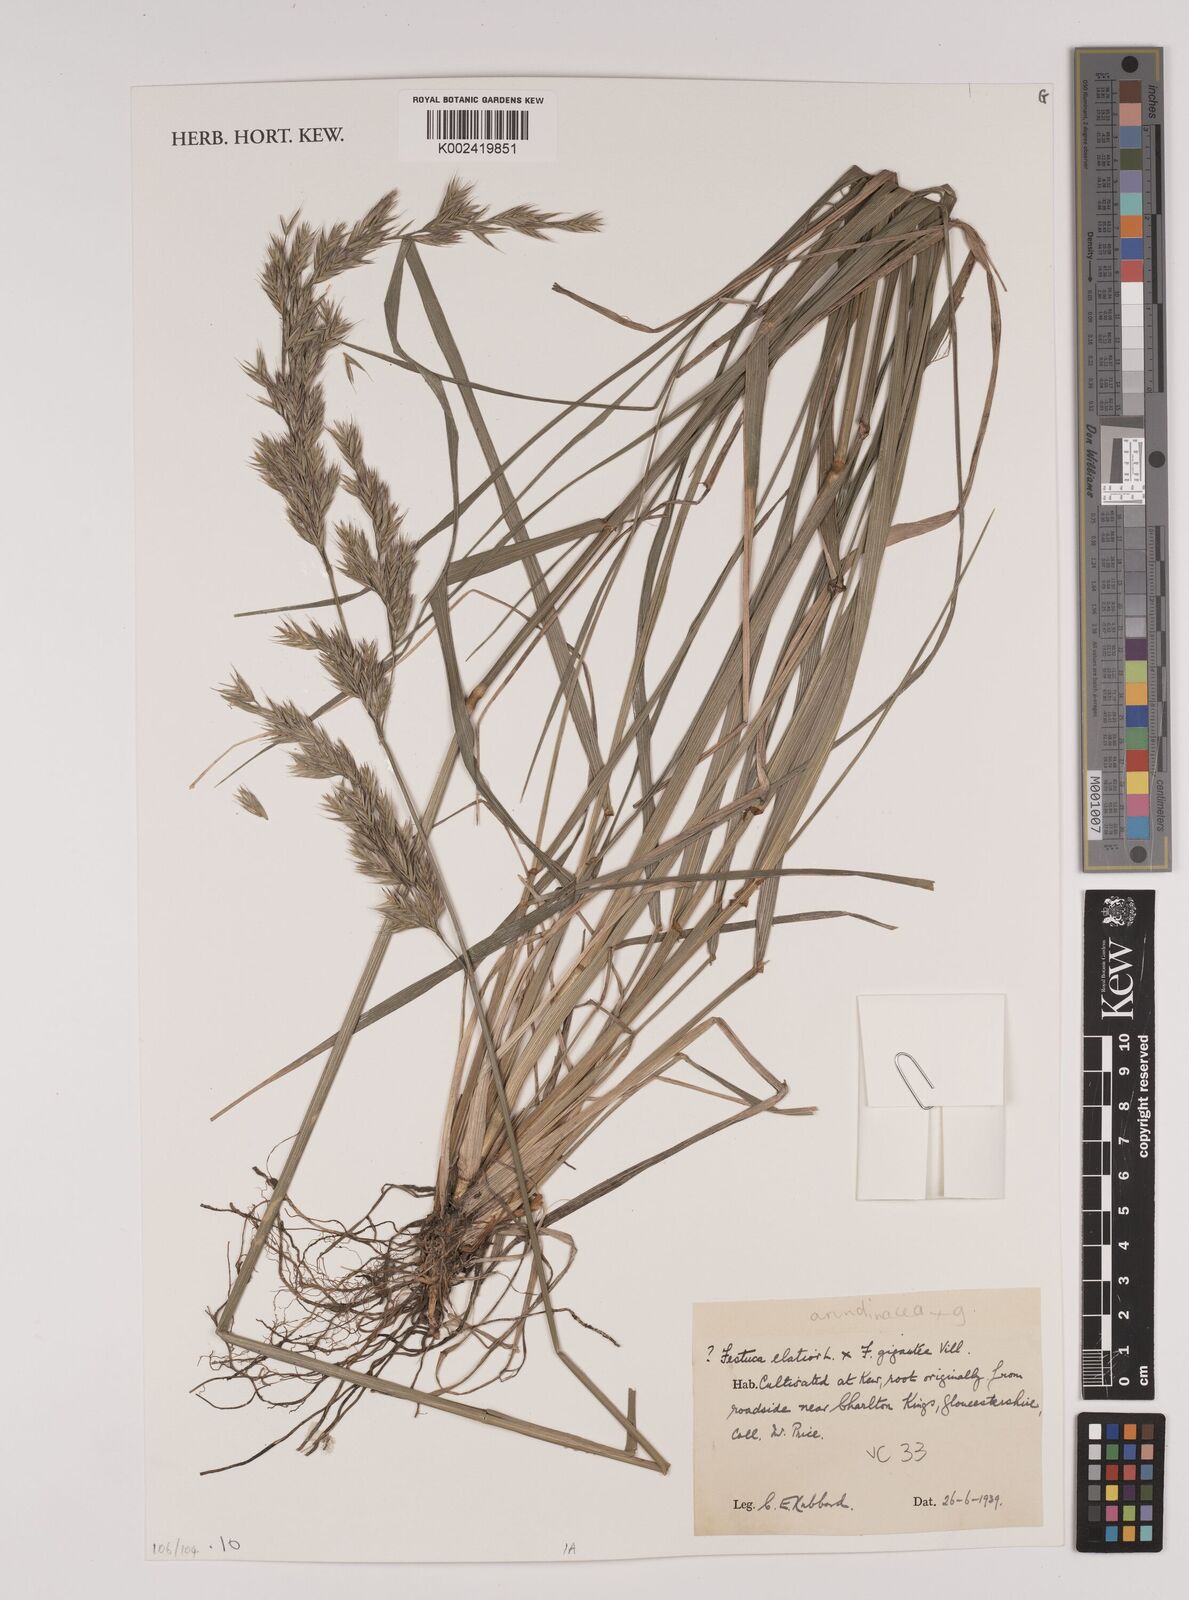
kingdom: Plantae
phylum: Tracheophyta
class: Liliopsida
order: Poales
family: Poaceae
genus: Festuca
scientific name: Festuca rubra
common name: Red fescue
